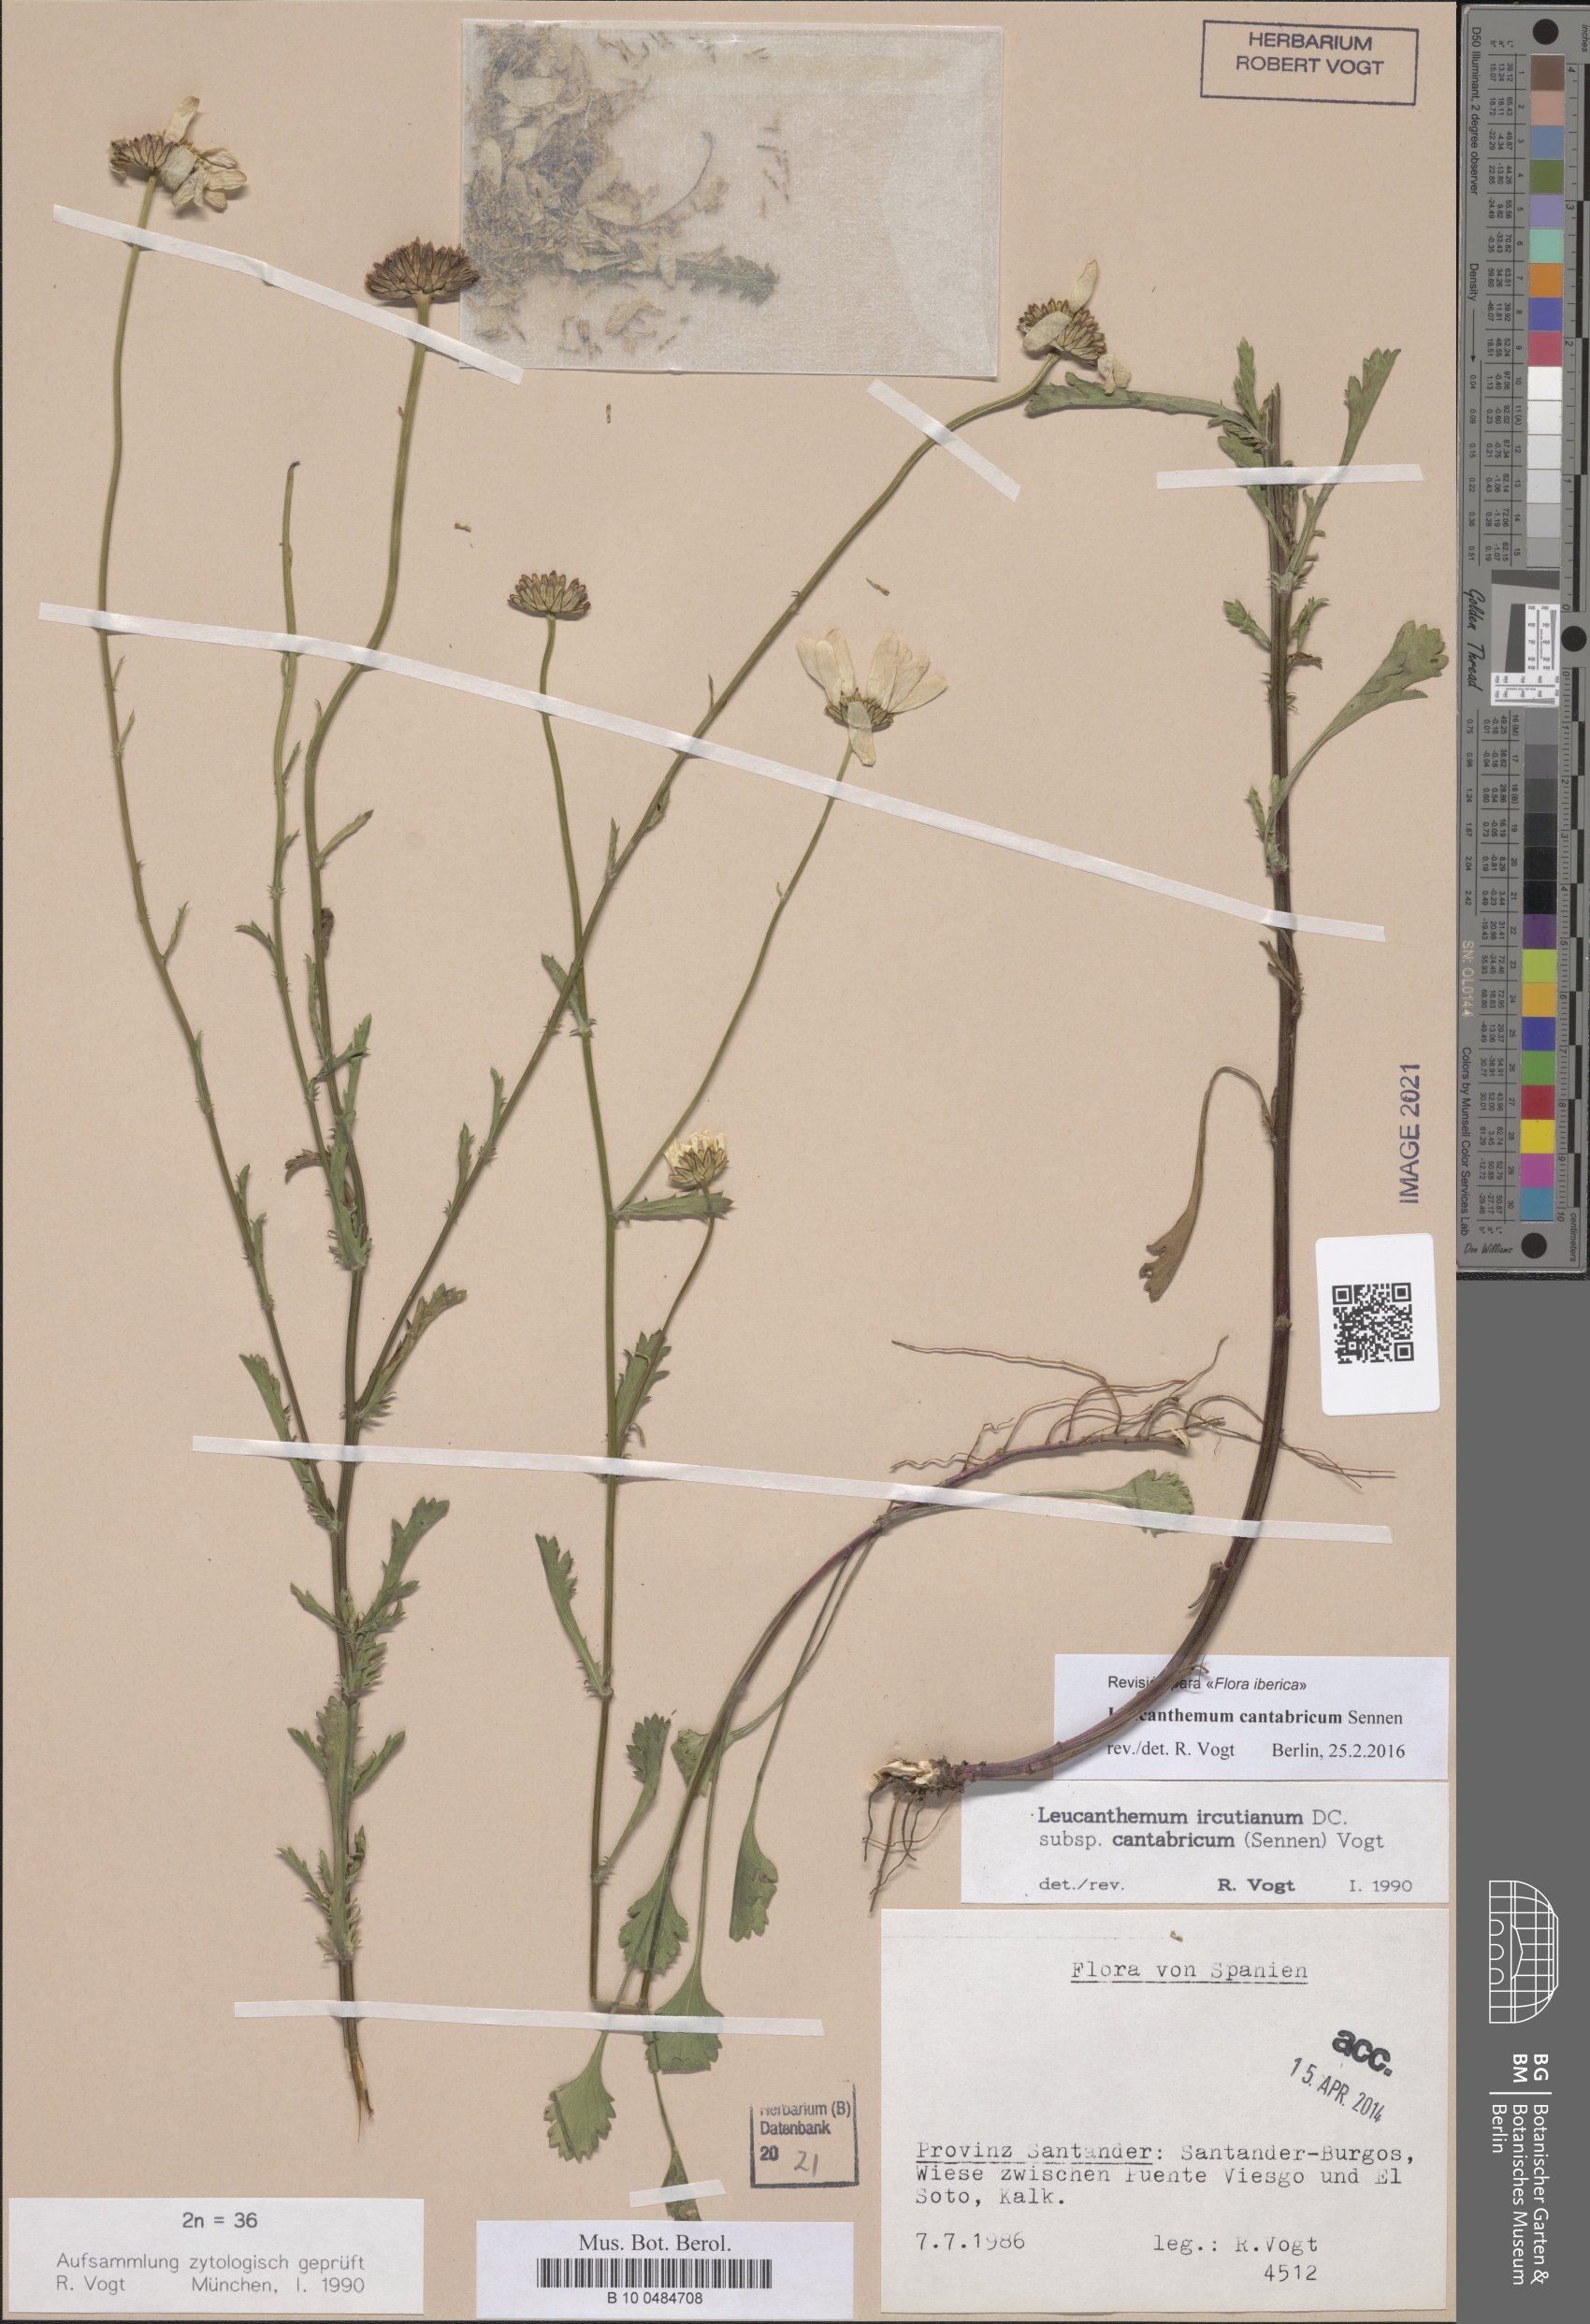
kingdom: Plantae
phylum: Tracheophyta
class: Magnoliopsida
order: Asterales
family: Asteraceae
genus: Leucanthemum
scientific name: Leucanthemum cantabricum
